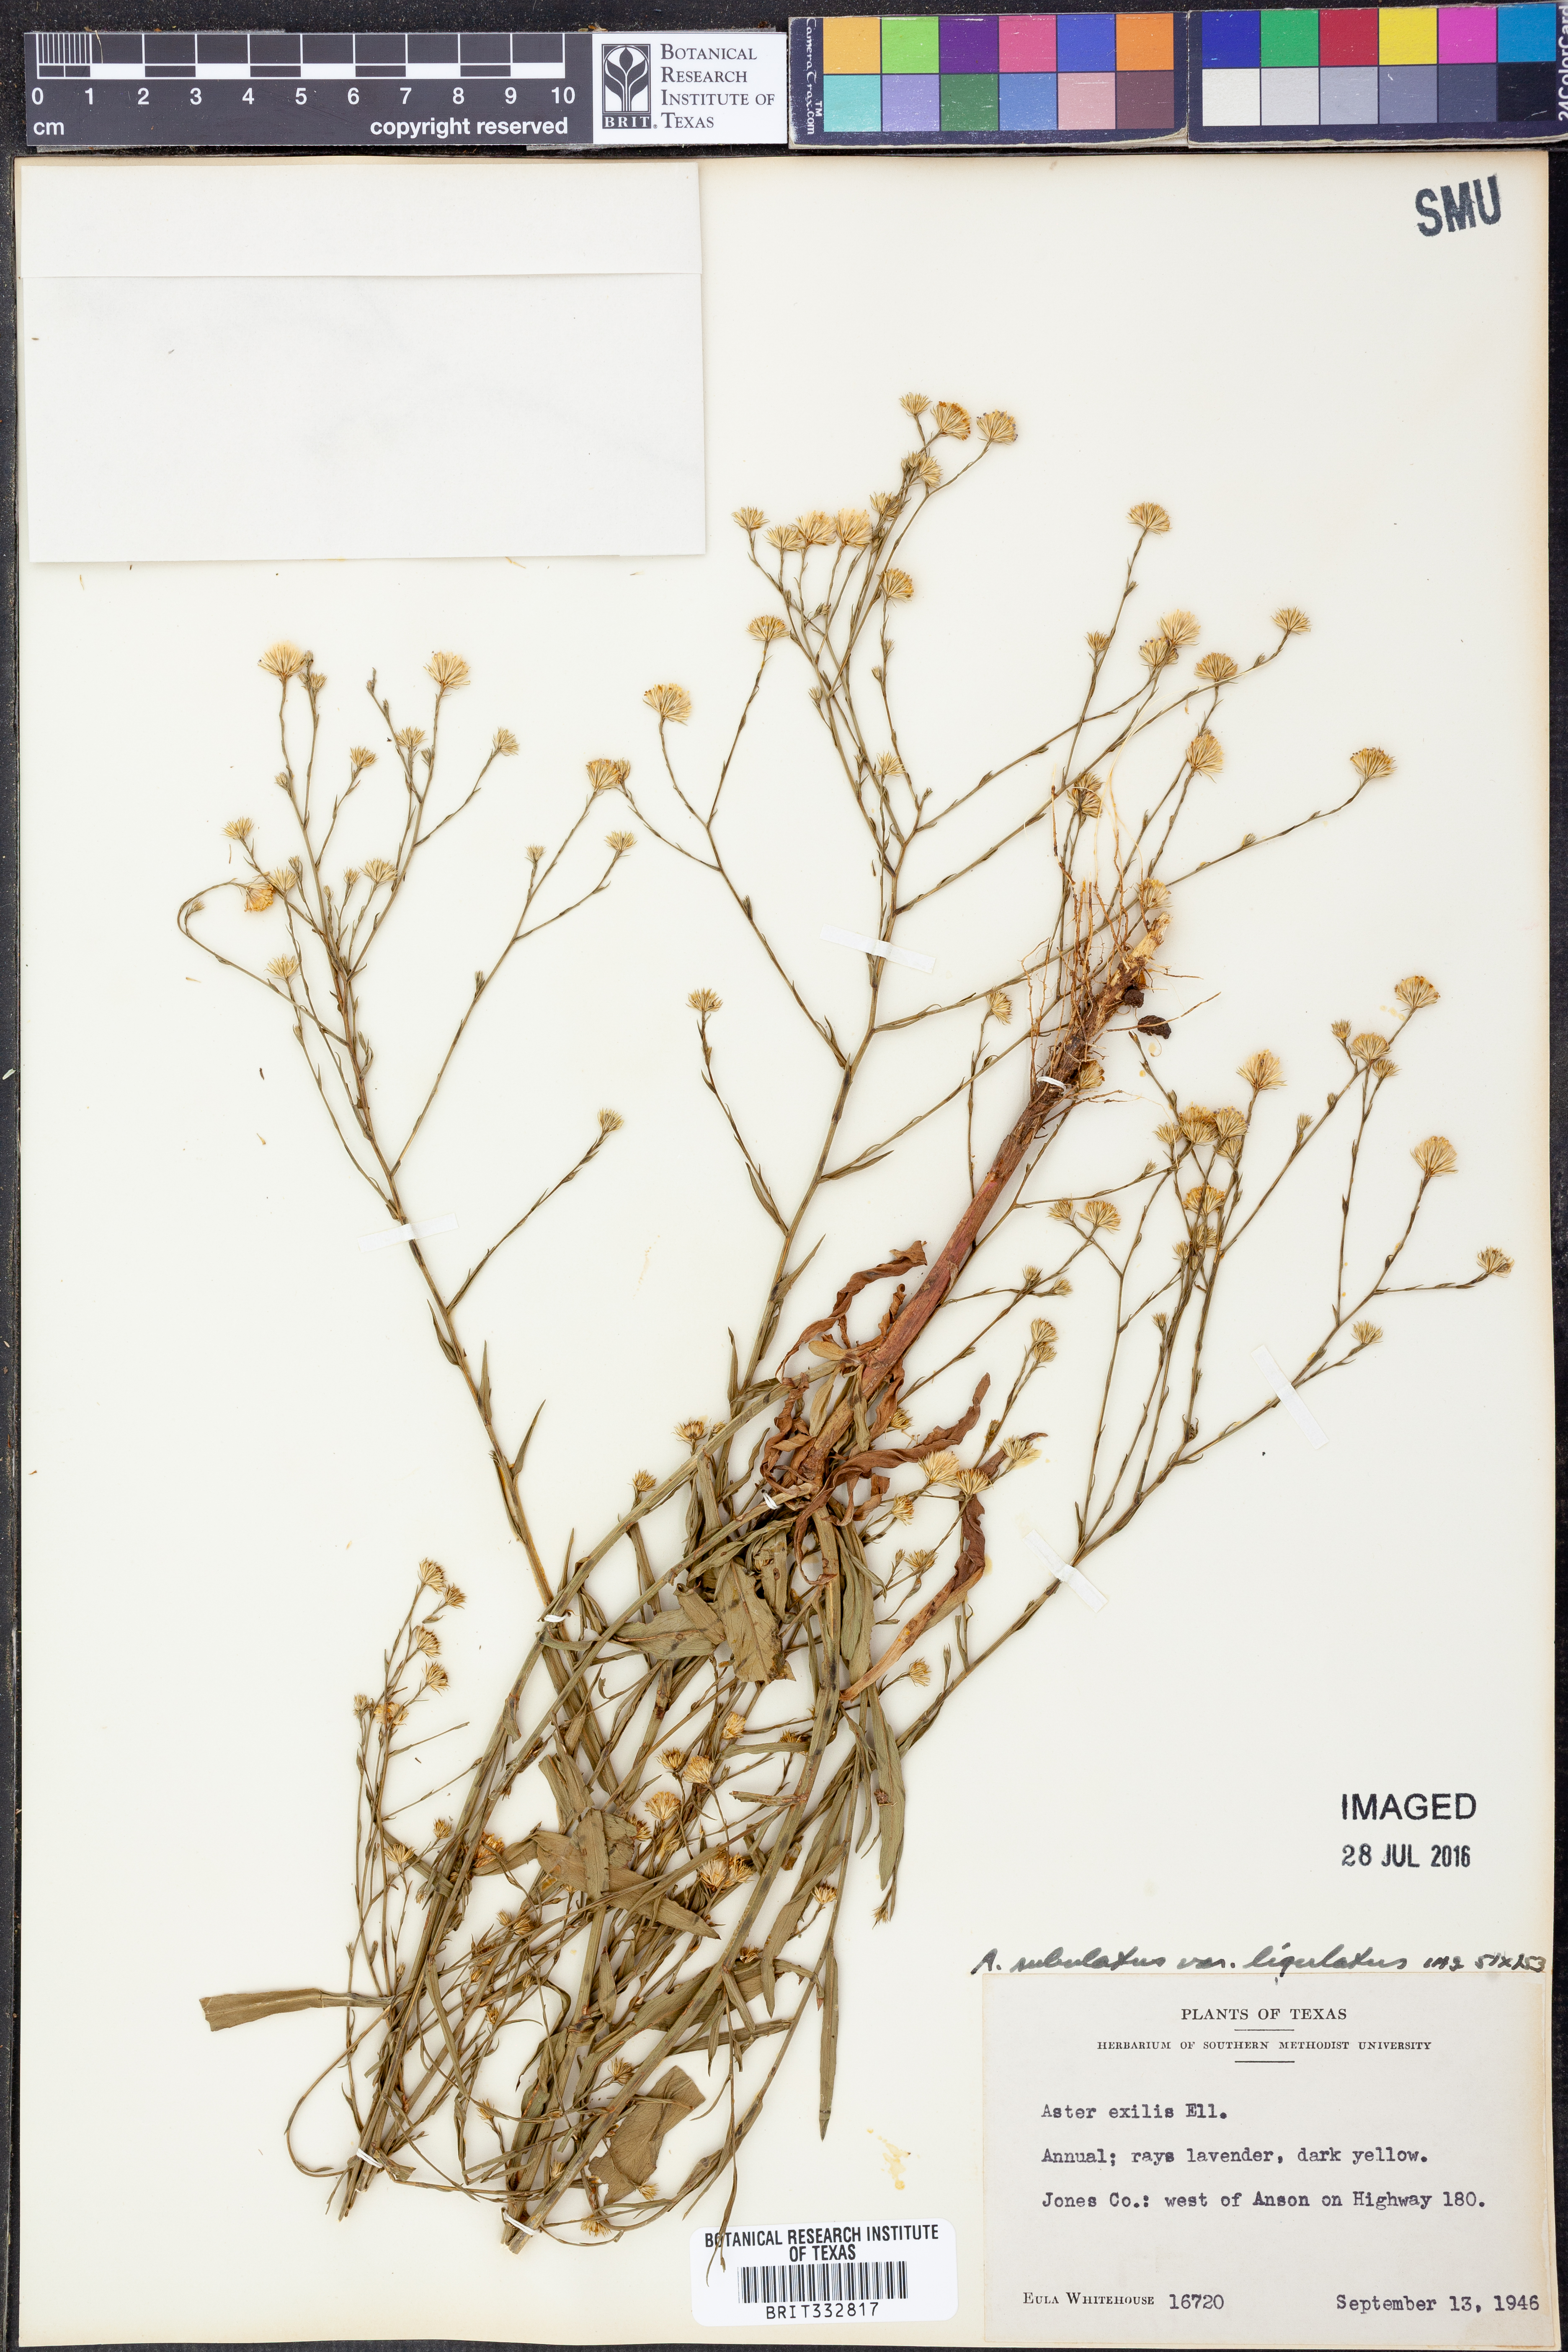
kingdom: Plantae
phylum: Tracheophyta
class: Magnoliopsida
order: Asterales
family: Asteraceae
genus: Symphyotrichum
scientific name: Symphyotrichum divaricatum
